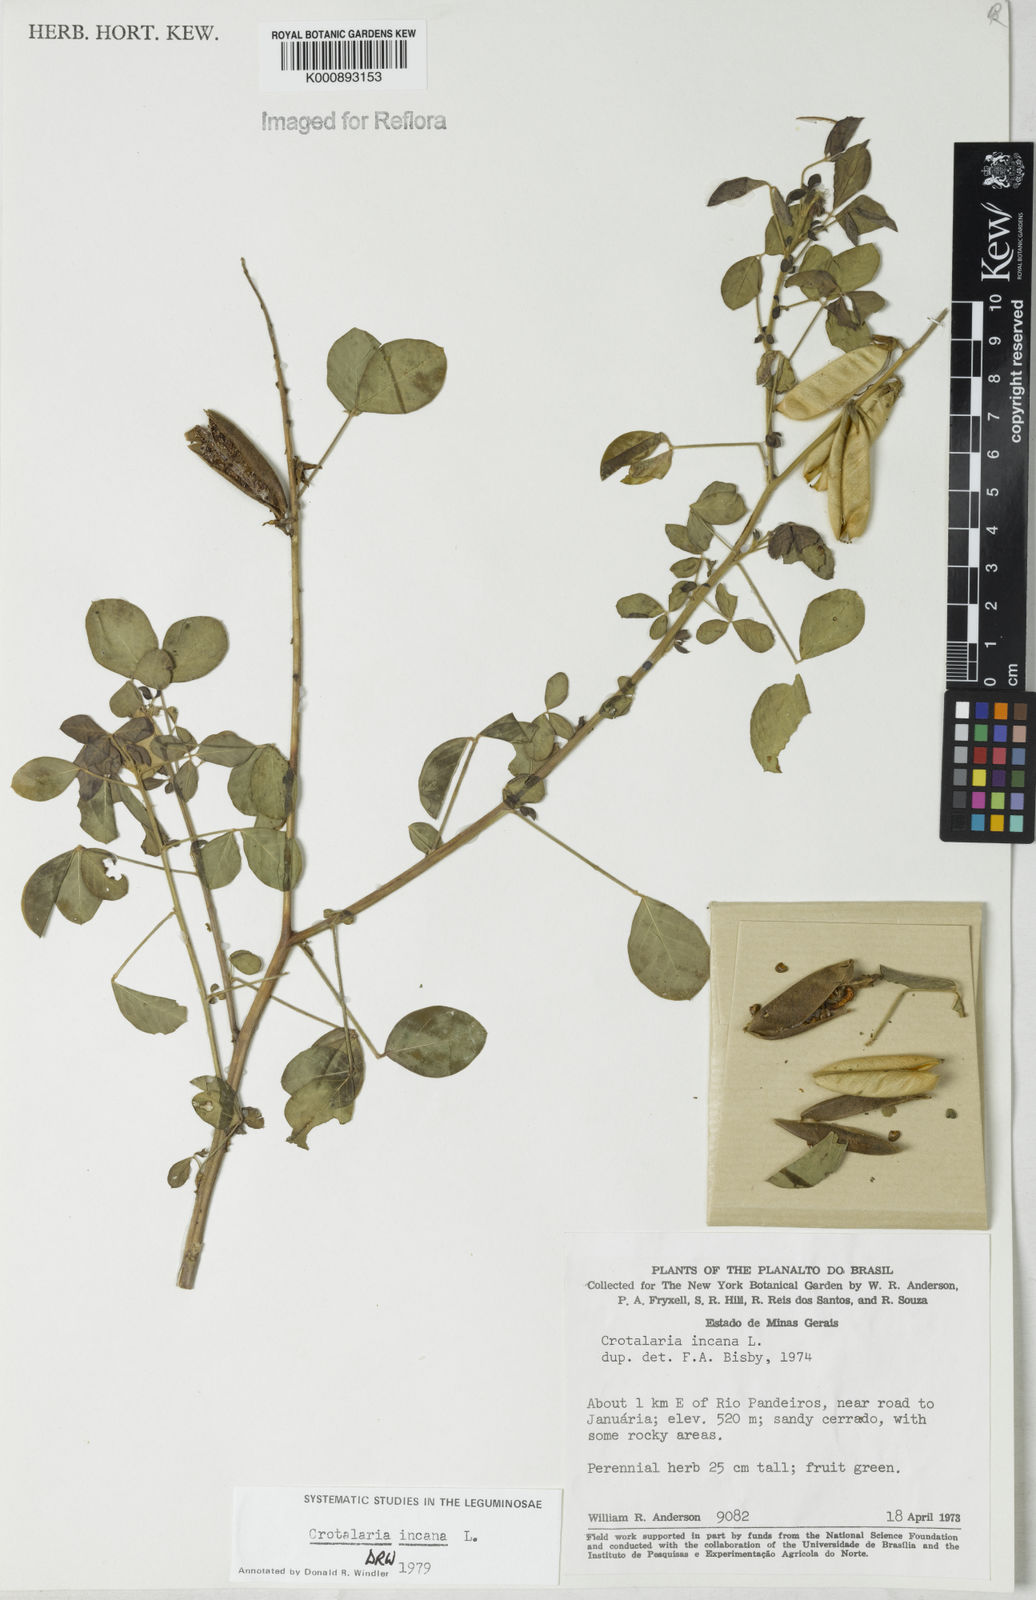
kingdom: Plantae
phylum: Tracheophyta
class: Magnoliopsida
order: Fabales
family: Fabaceae
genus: Crotalaria
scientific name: Crotalaria incana
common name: Shakeshake
